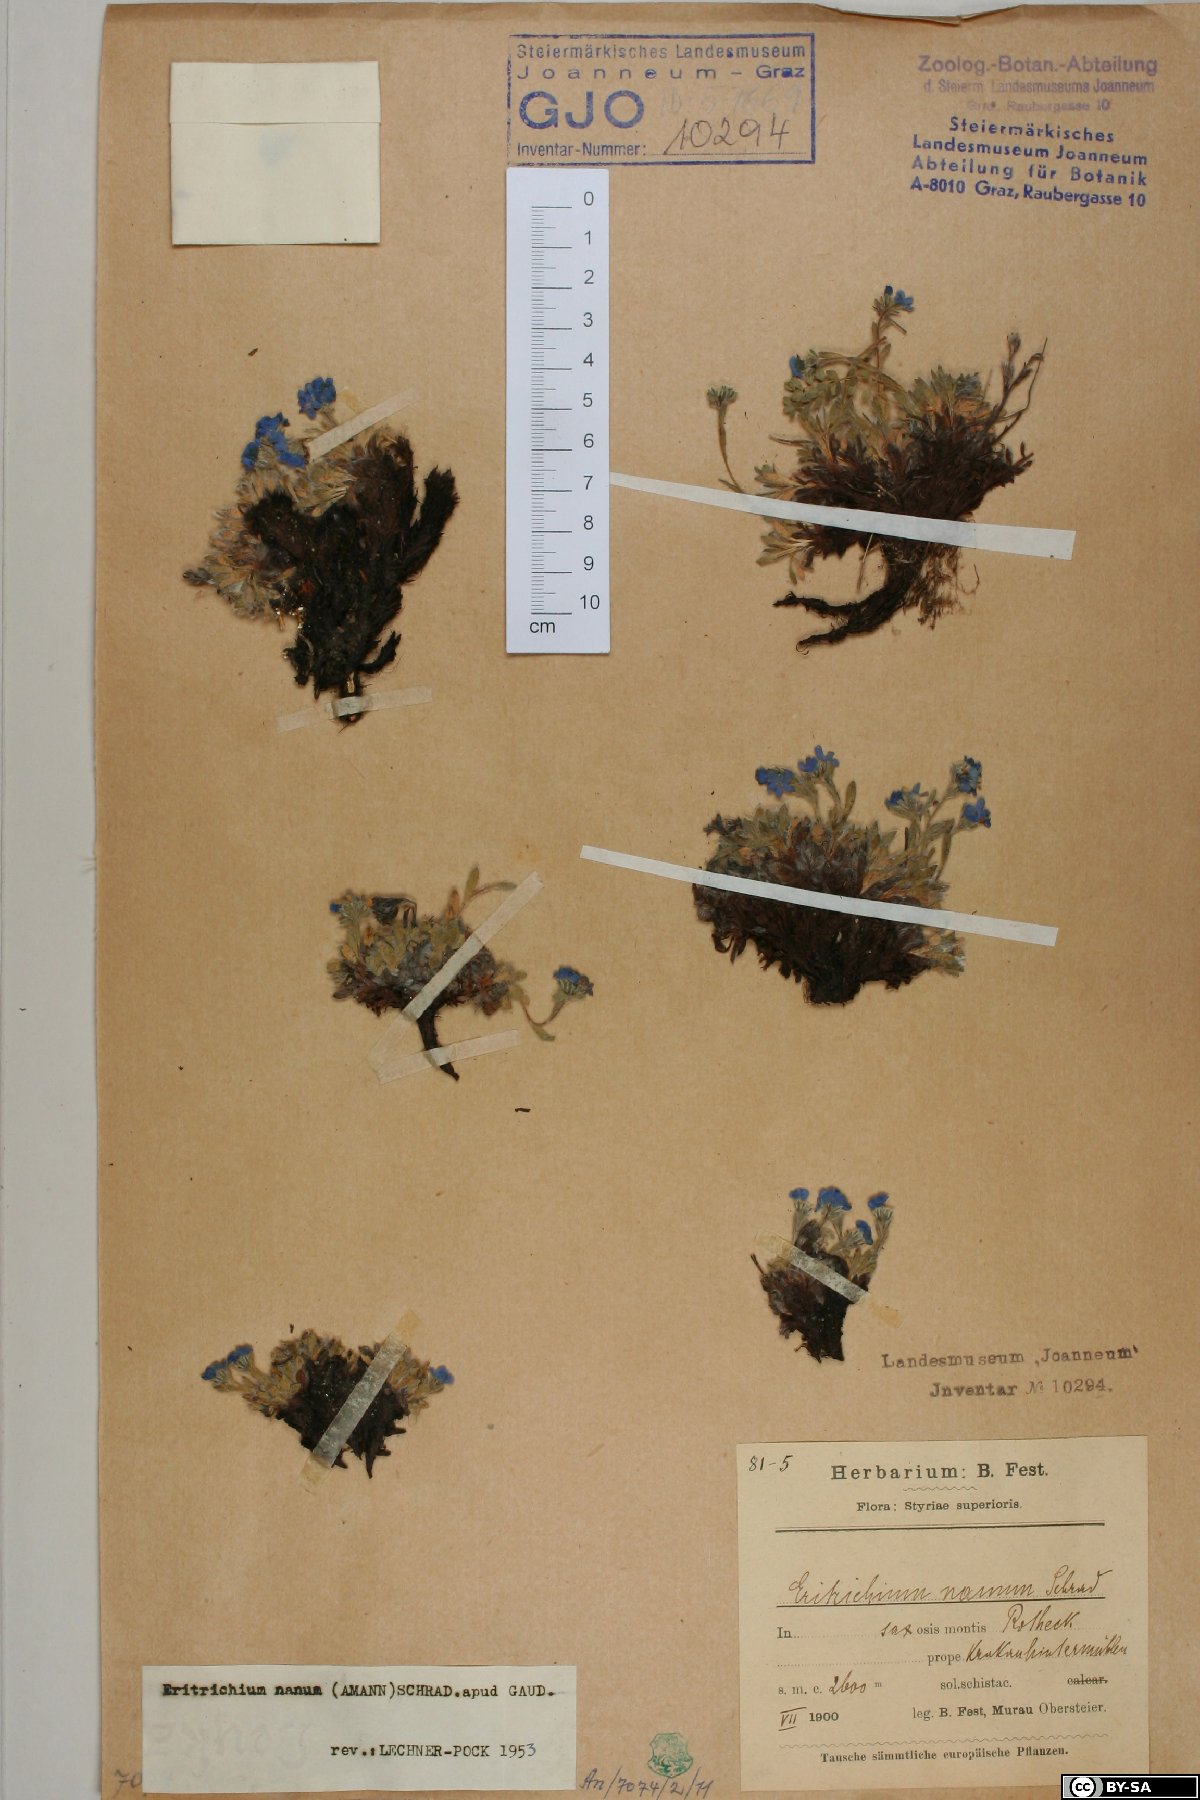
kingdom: Plantae
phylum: Tracheophyta
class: Magnoliopsida
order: Boraginales
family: Boraginaceae
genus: Eritrichium
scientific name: Eritrichium nanum
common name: King-of-the-alps
